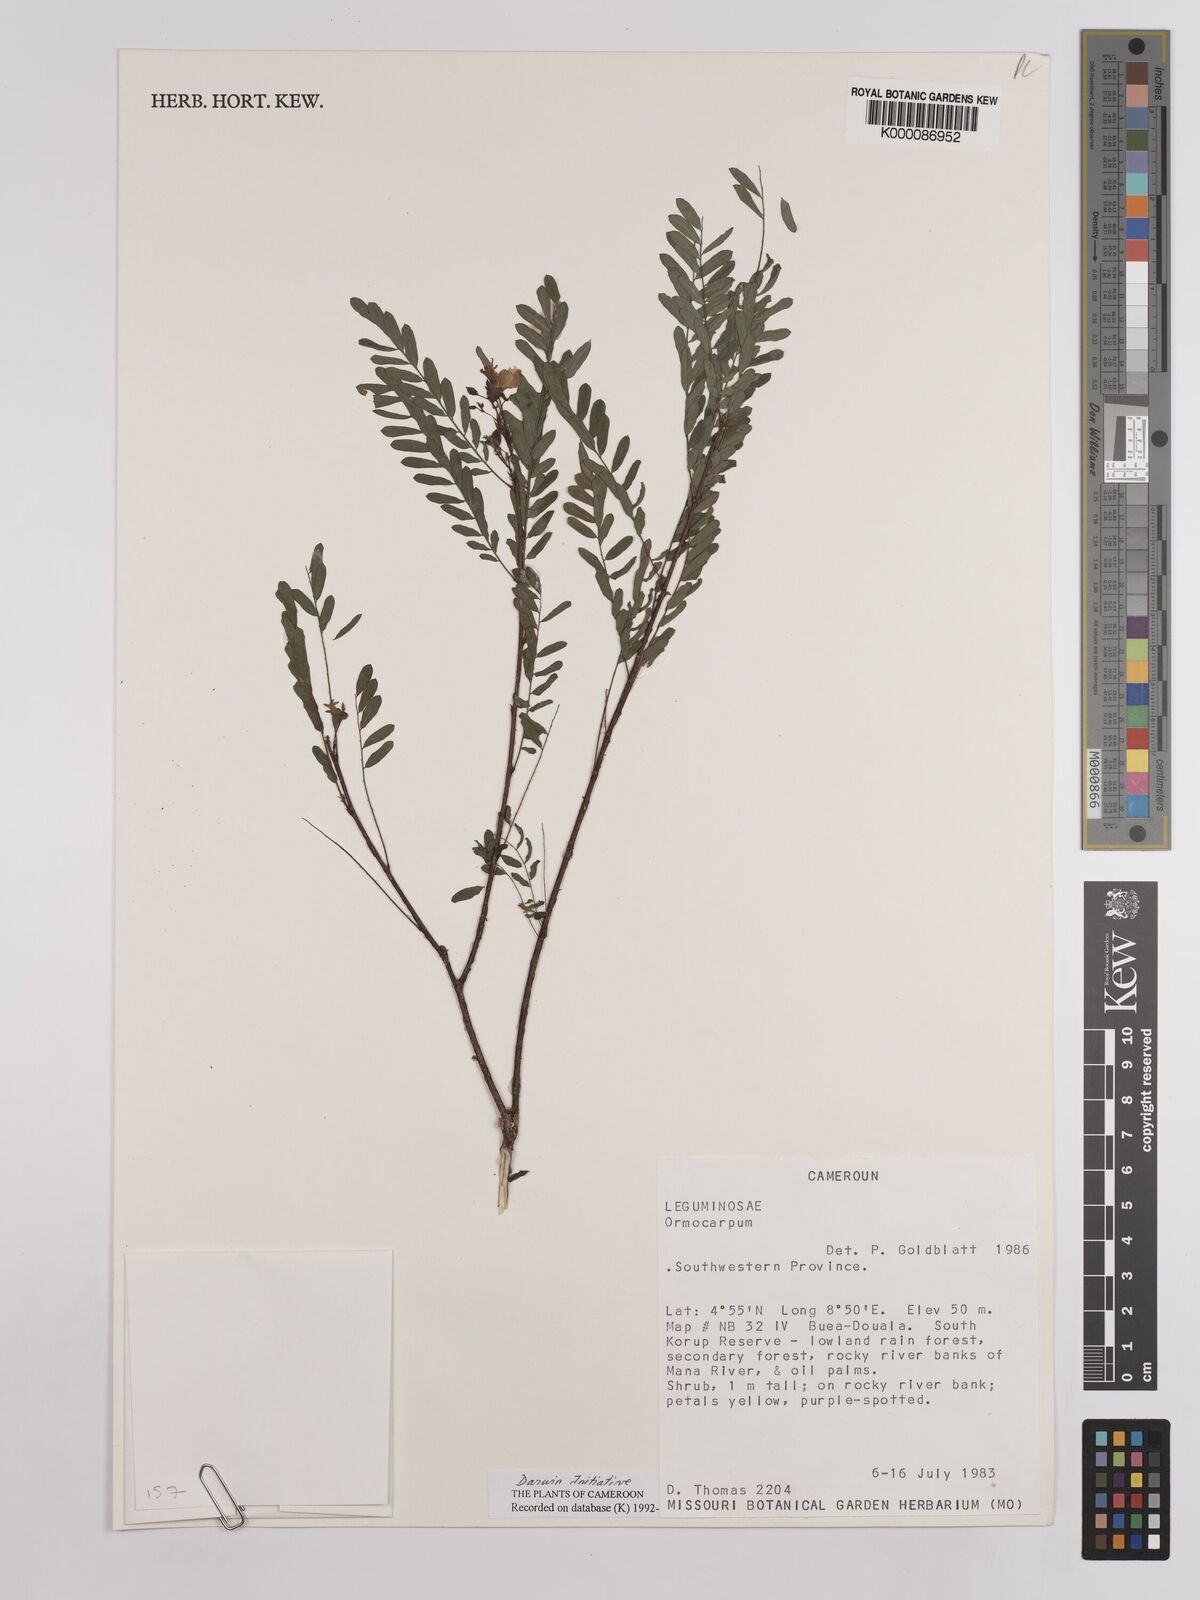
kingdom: Plantae
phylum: Tracheophyta
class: Magnoliopsida
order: Fabales
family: Fabaceae
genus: Ormocarpum
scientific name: Ormocarpum
